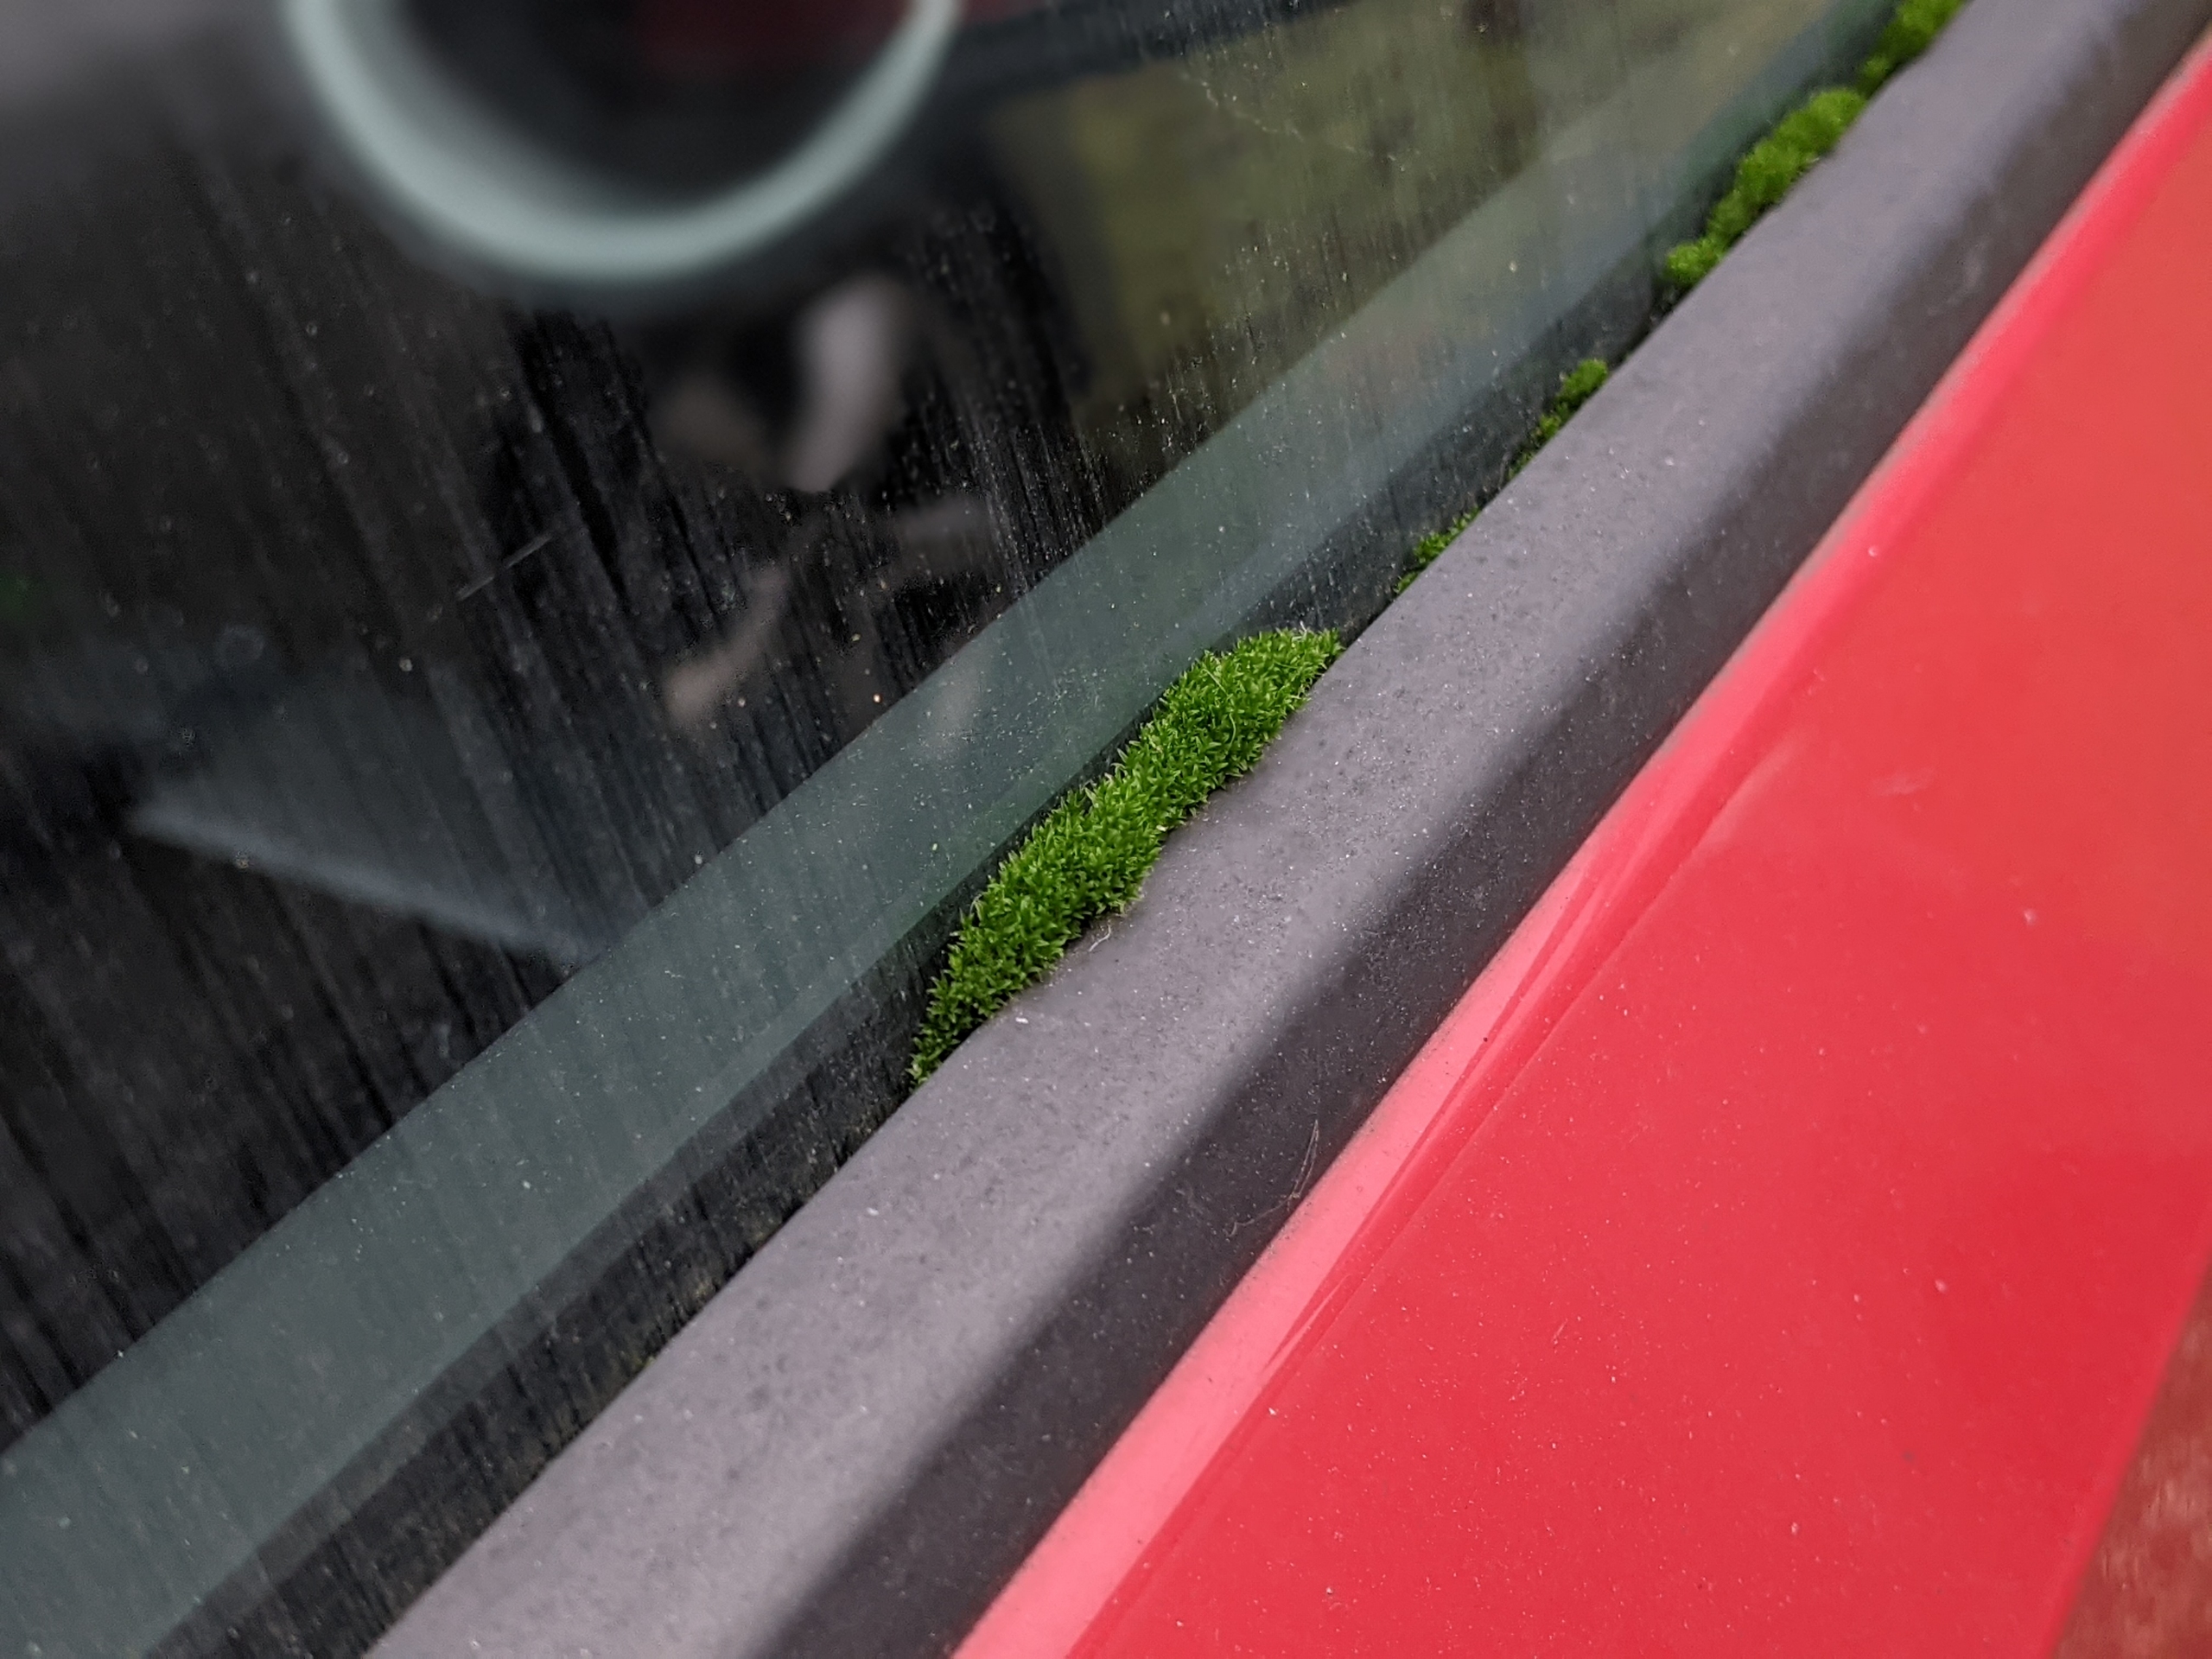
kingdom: Plantae
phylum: Bryophyta
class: Bryopsida
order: Dicranales
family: Ditrichaceae
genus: Ceratodon
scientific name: Ceratodon purpureus
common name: Rød horntand
